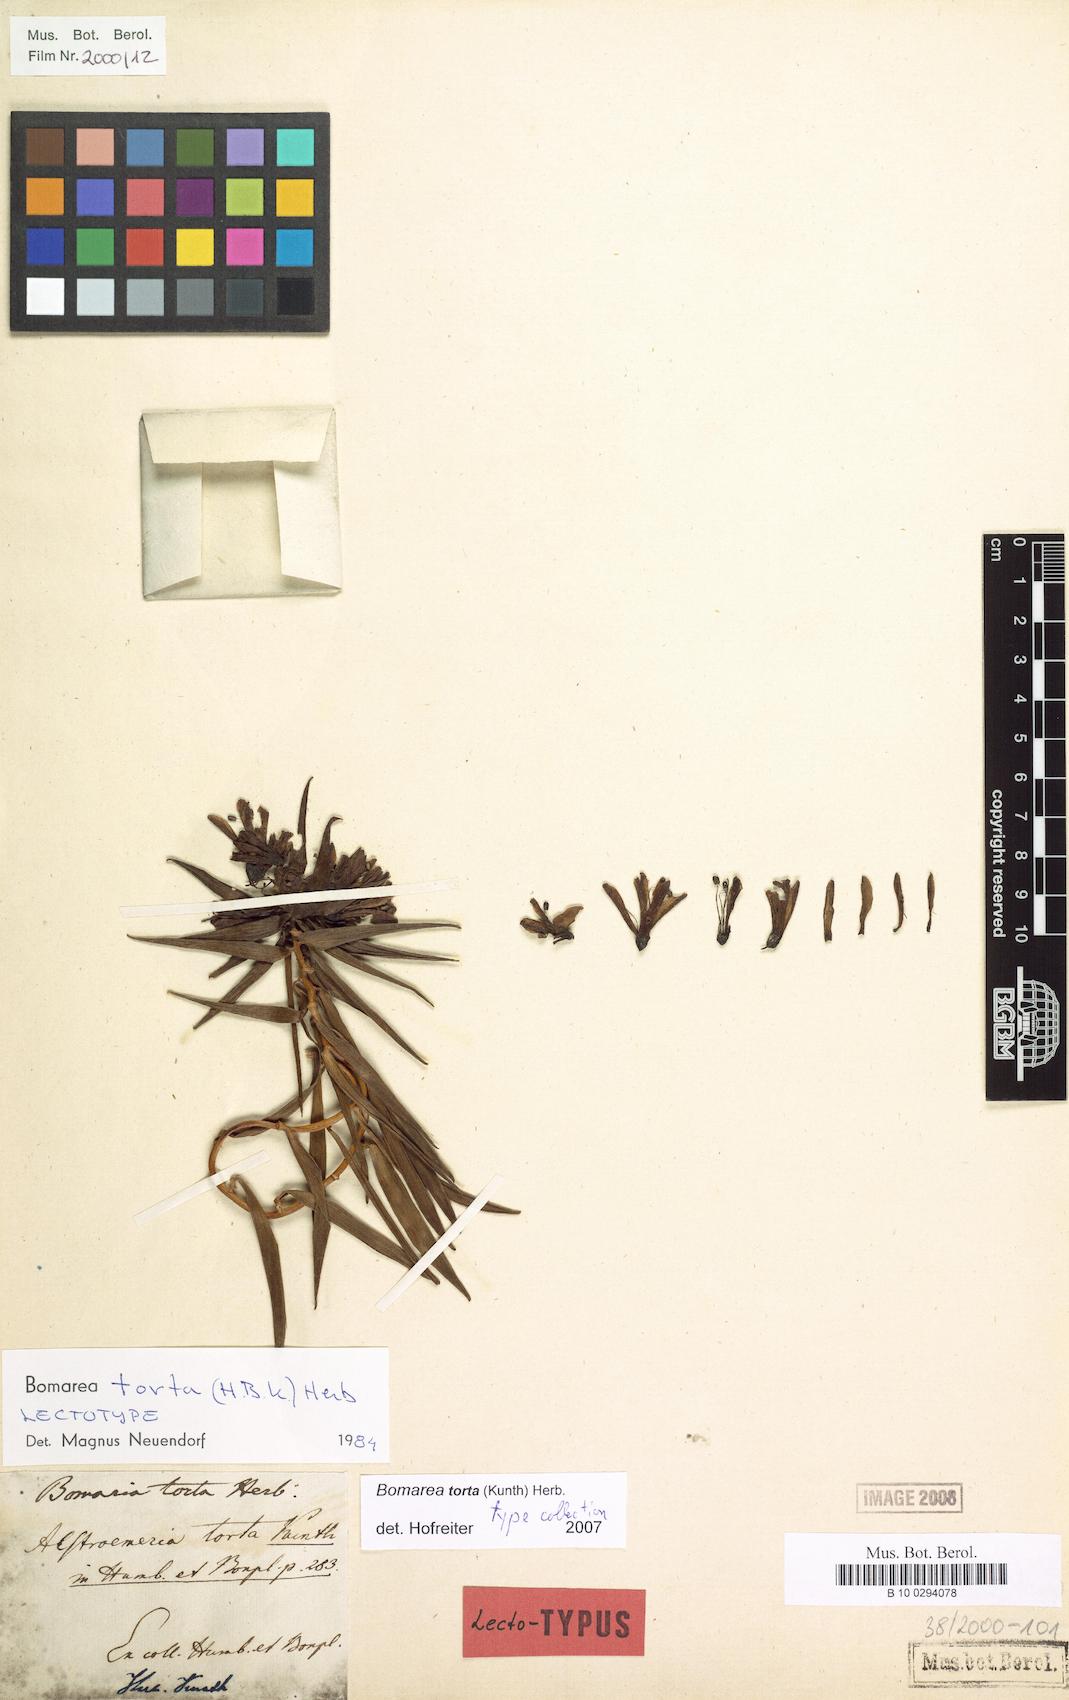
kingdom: Plantae
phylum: Tracheophyta
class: Liliopsida
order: Liliales
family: Alstroemeriaceae
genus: Bomarea
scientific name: Bomarea torta
